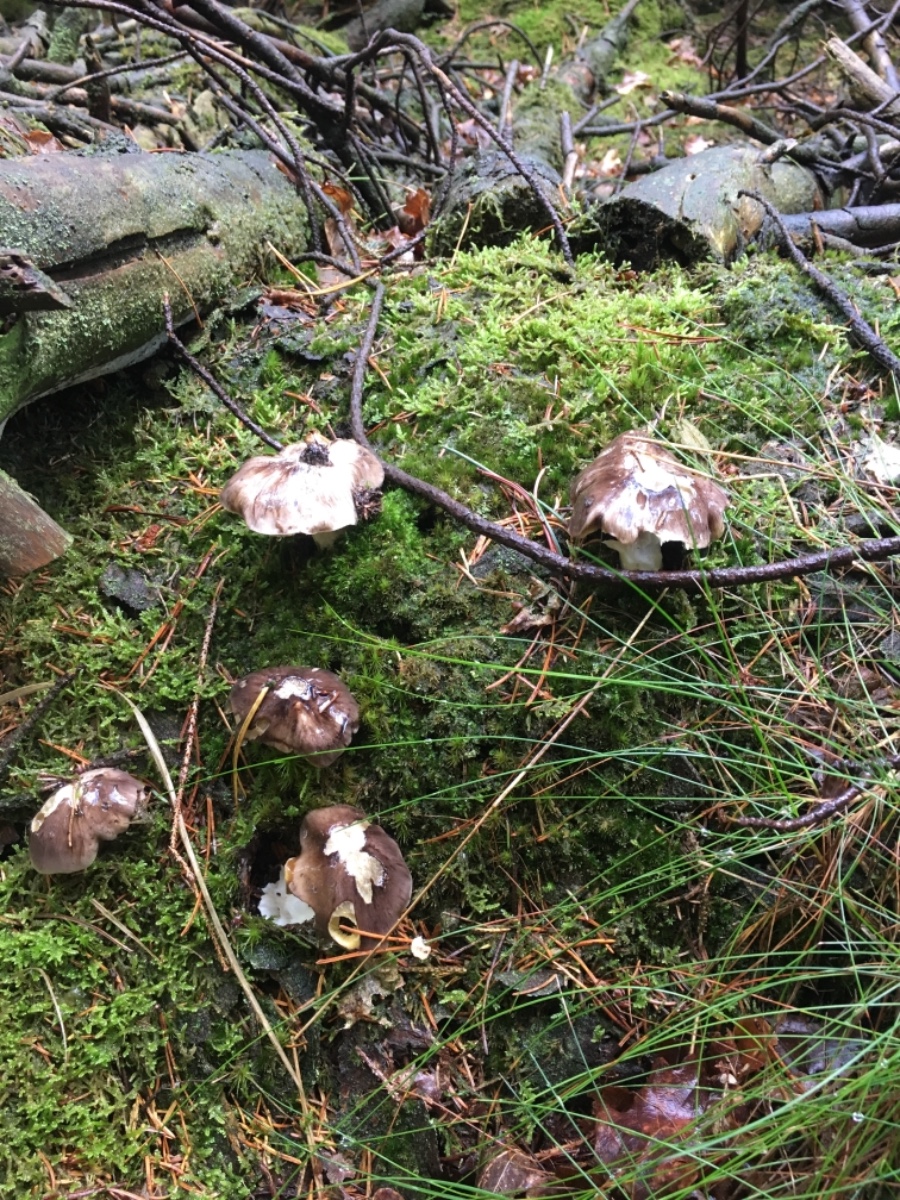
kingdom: Fungi
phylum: Basidiomycota
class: Agaricomycetes
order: Agaricales
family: Tricholomataceae
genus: Tricholoma
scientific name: Tricholoma portentosum
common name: grå ridderhat
